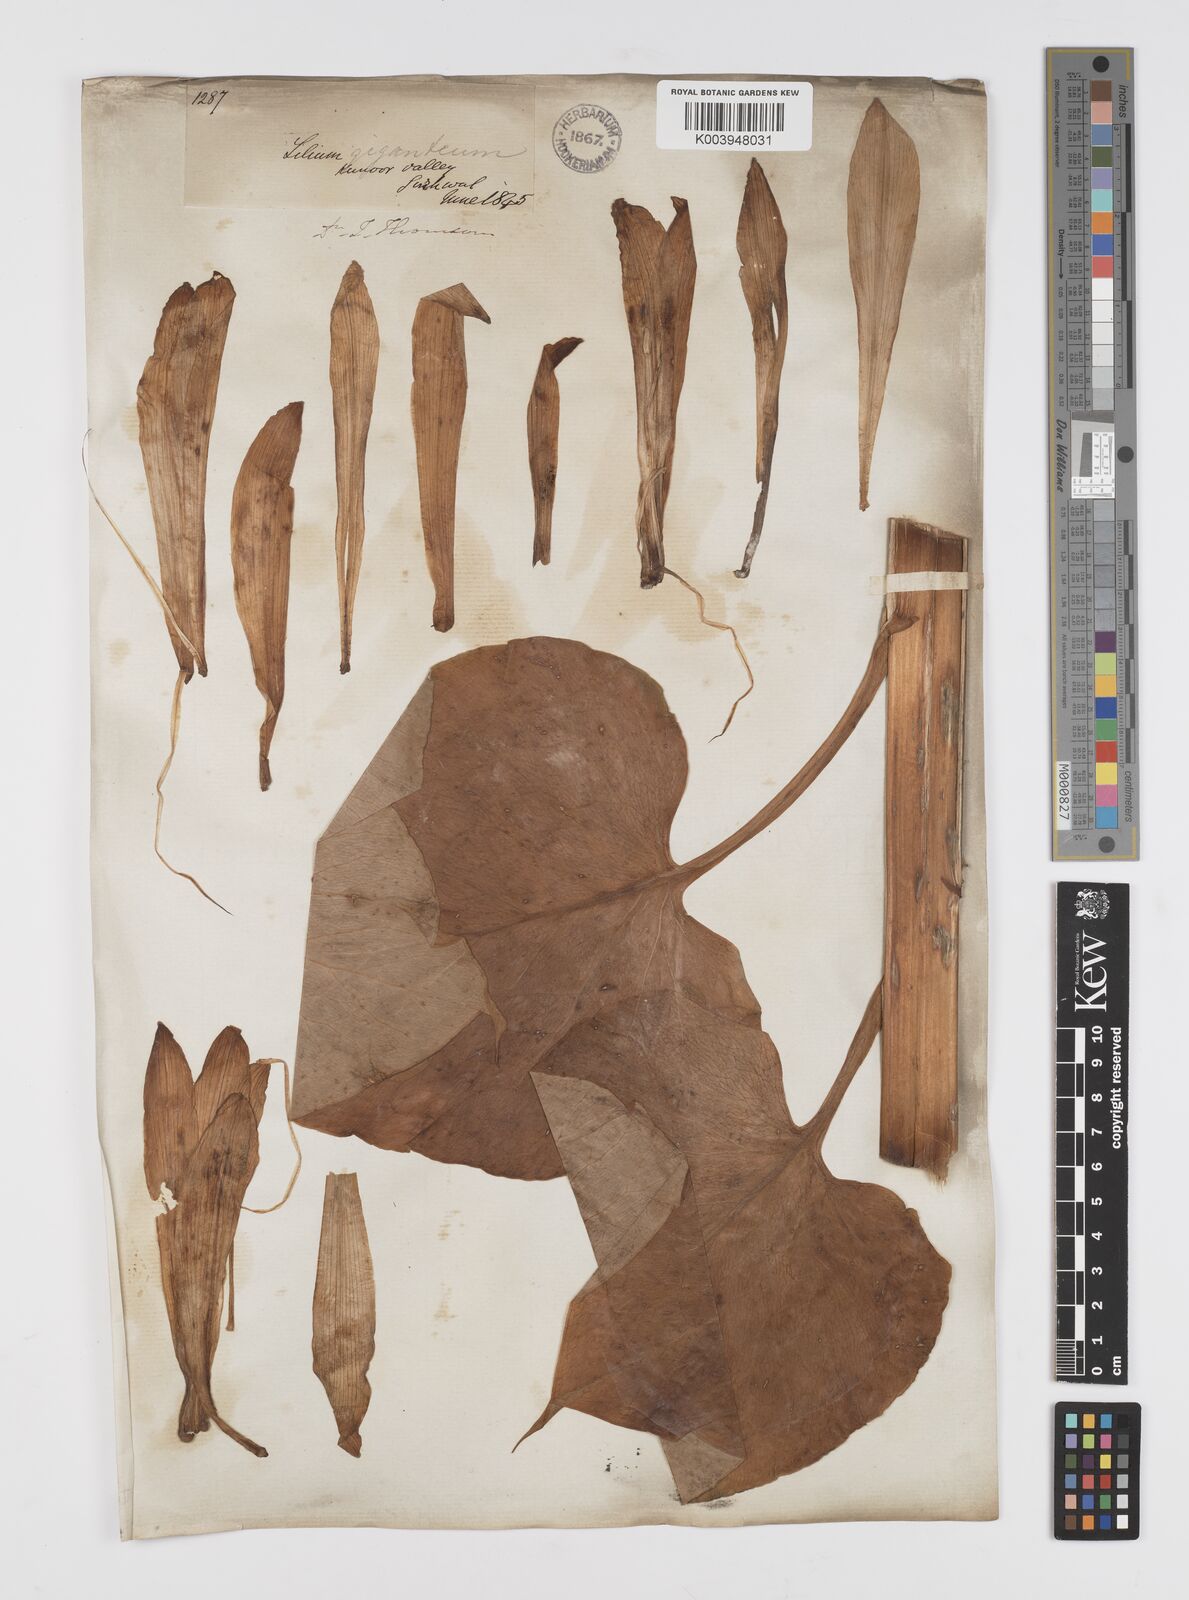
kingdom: Plantae
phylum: Tracheophyta
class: Liliopsida
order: Liliales
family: Liliaceae
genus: Cardiocrinum
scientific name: Cardiocrinum giganteum
